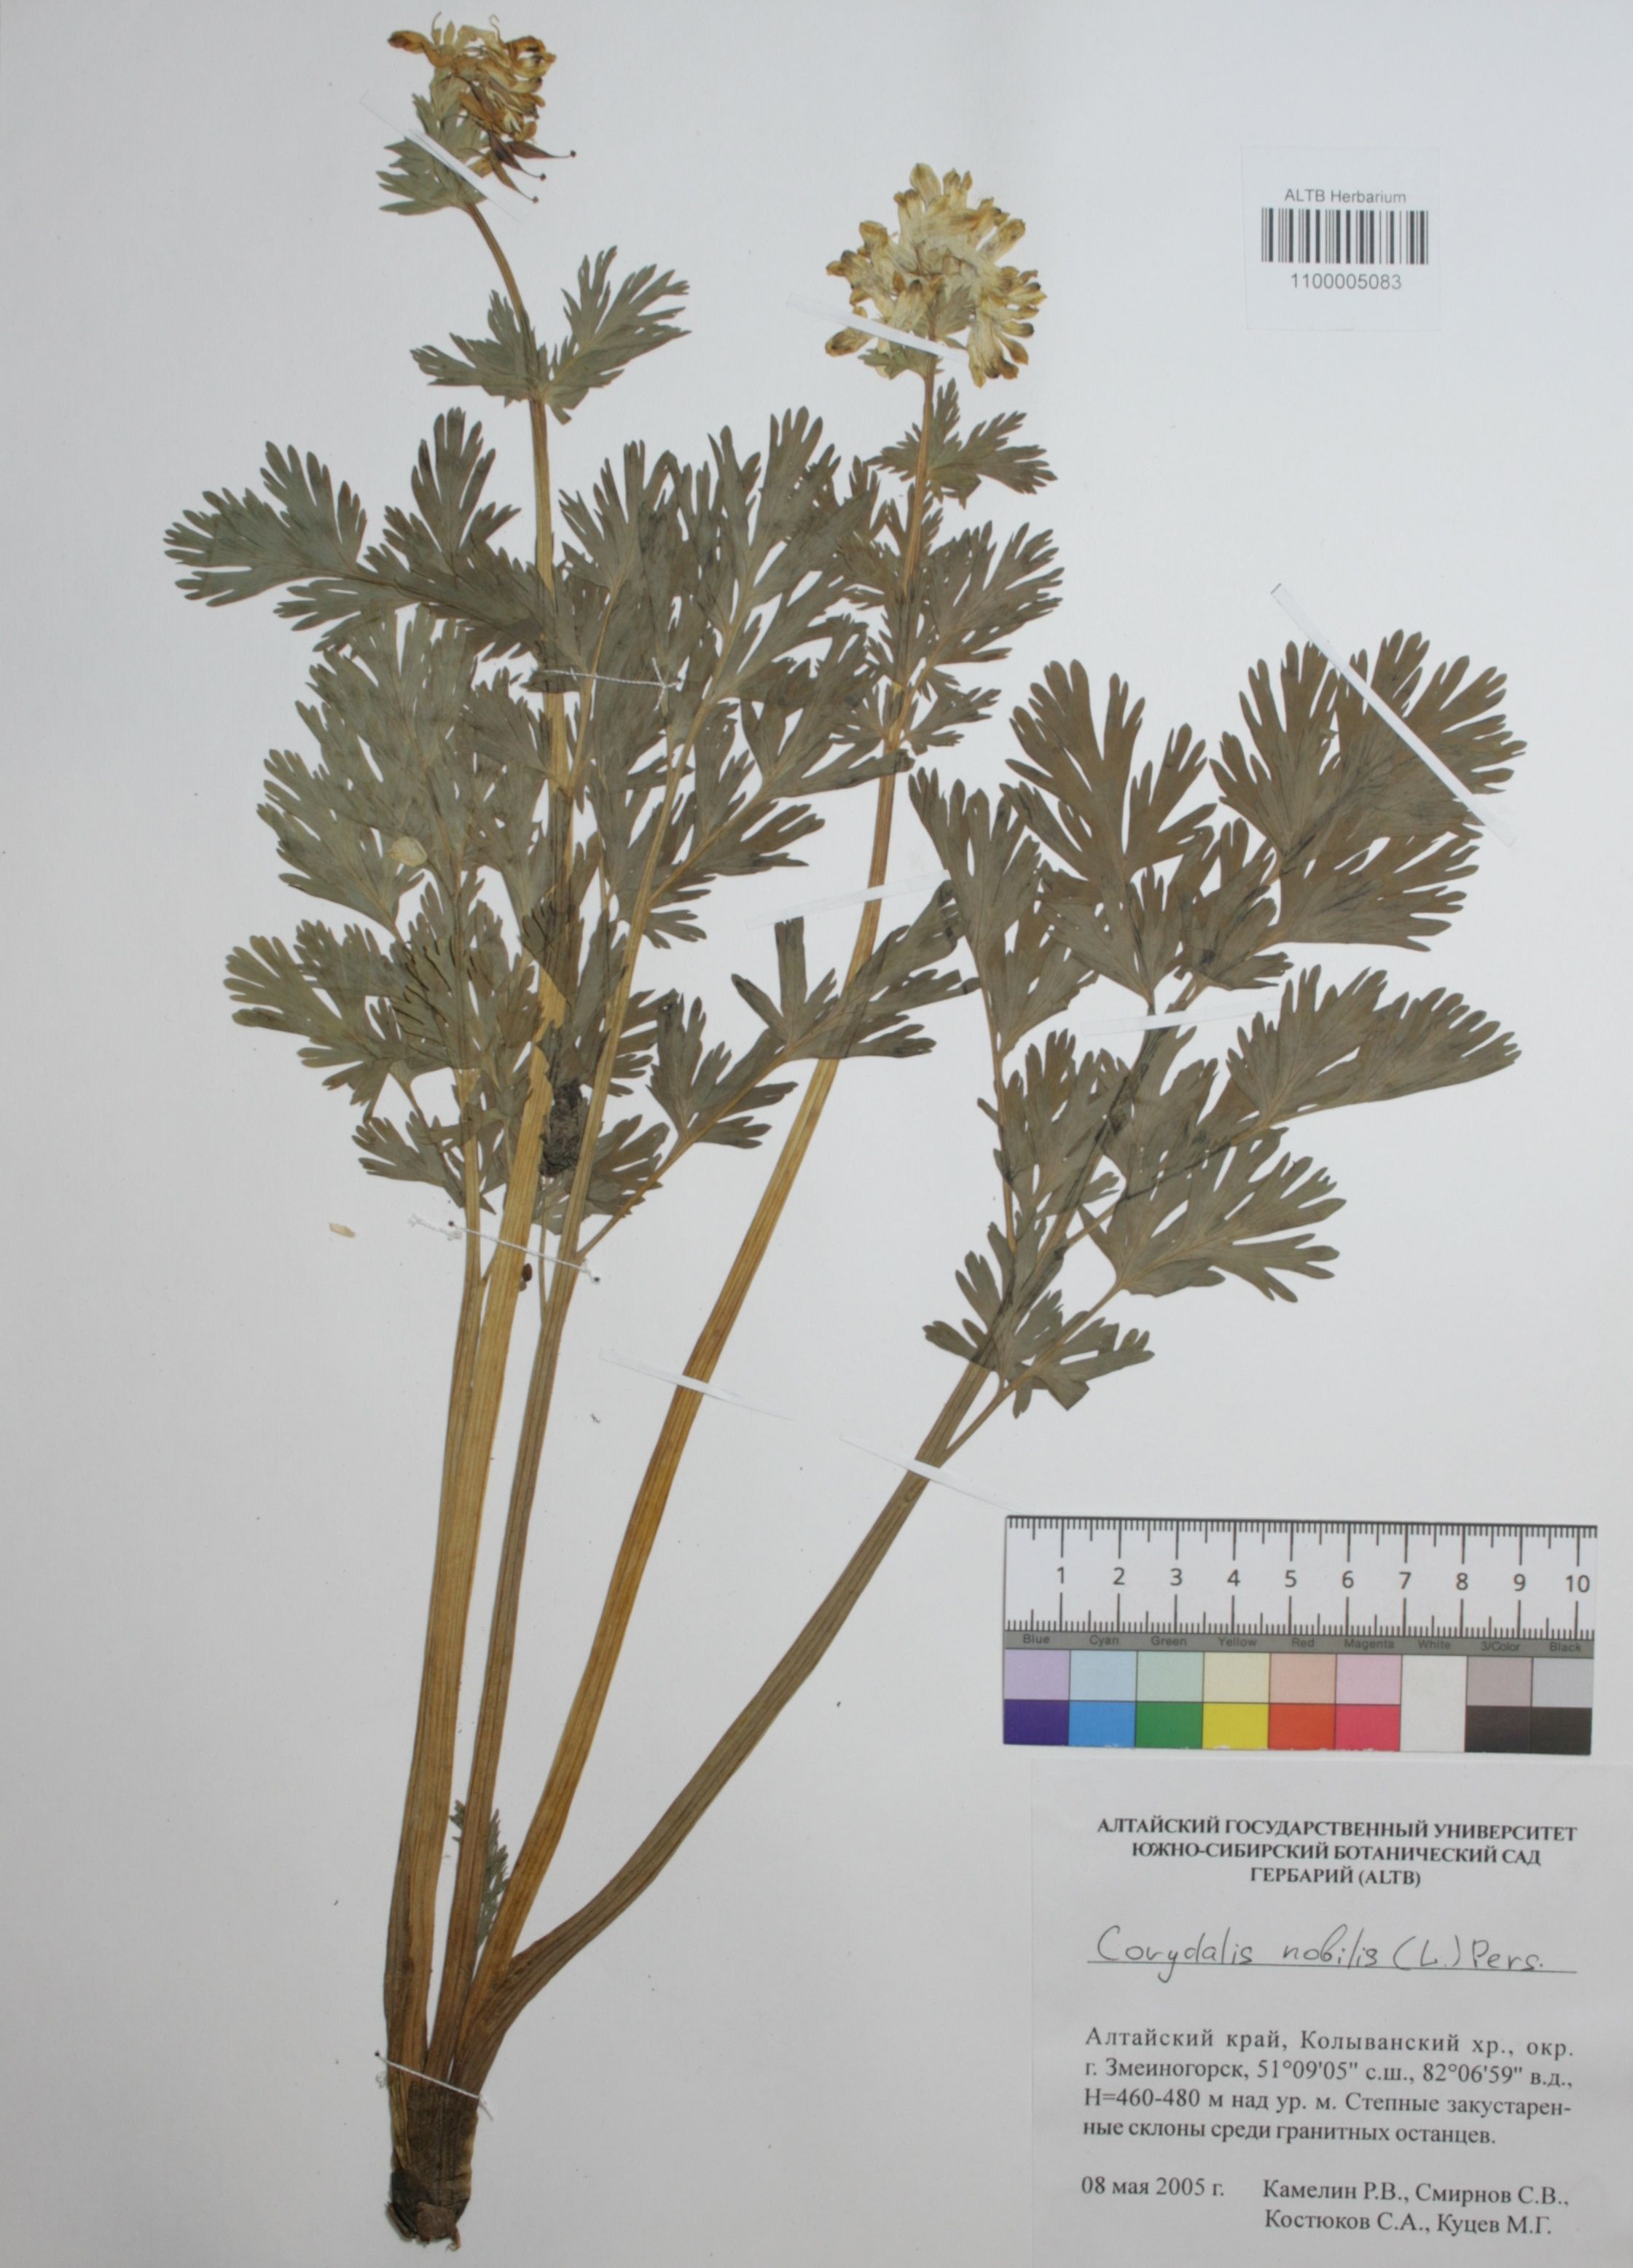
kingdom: Plantae
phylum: Tracheophyta
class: Magnoliopsida
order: Ranunculales
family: Papaveraceae
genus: Corydalis
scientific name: Corydalis nobilis
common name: Siberian corydalis
